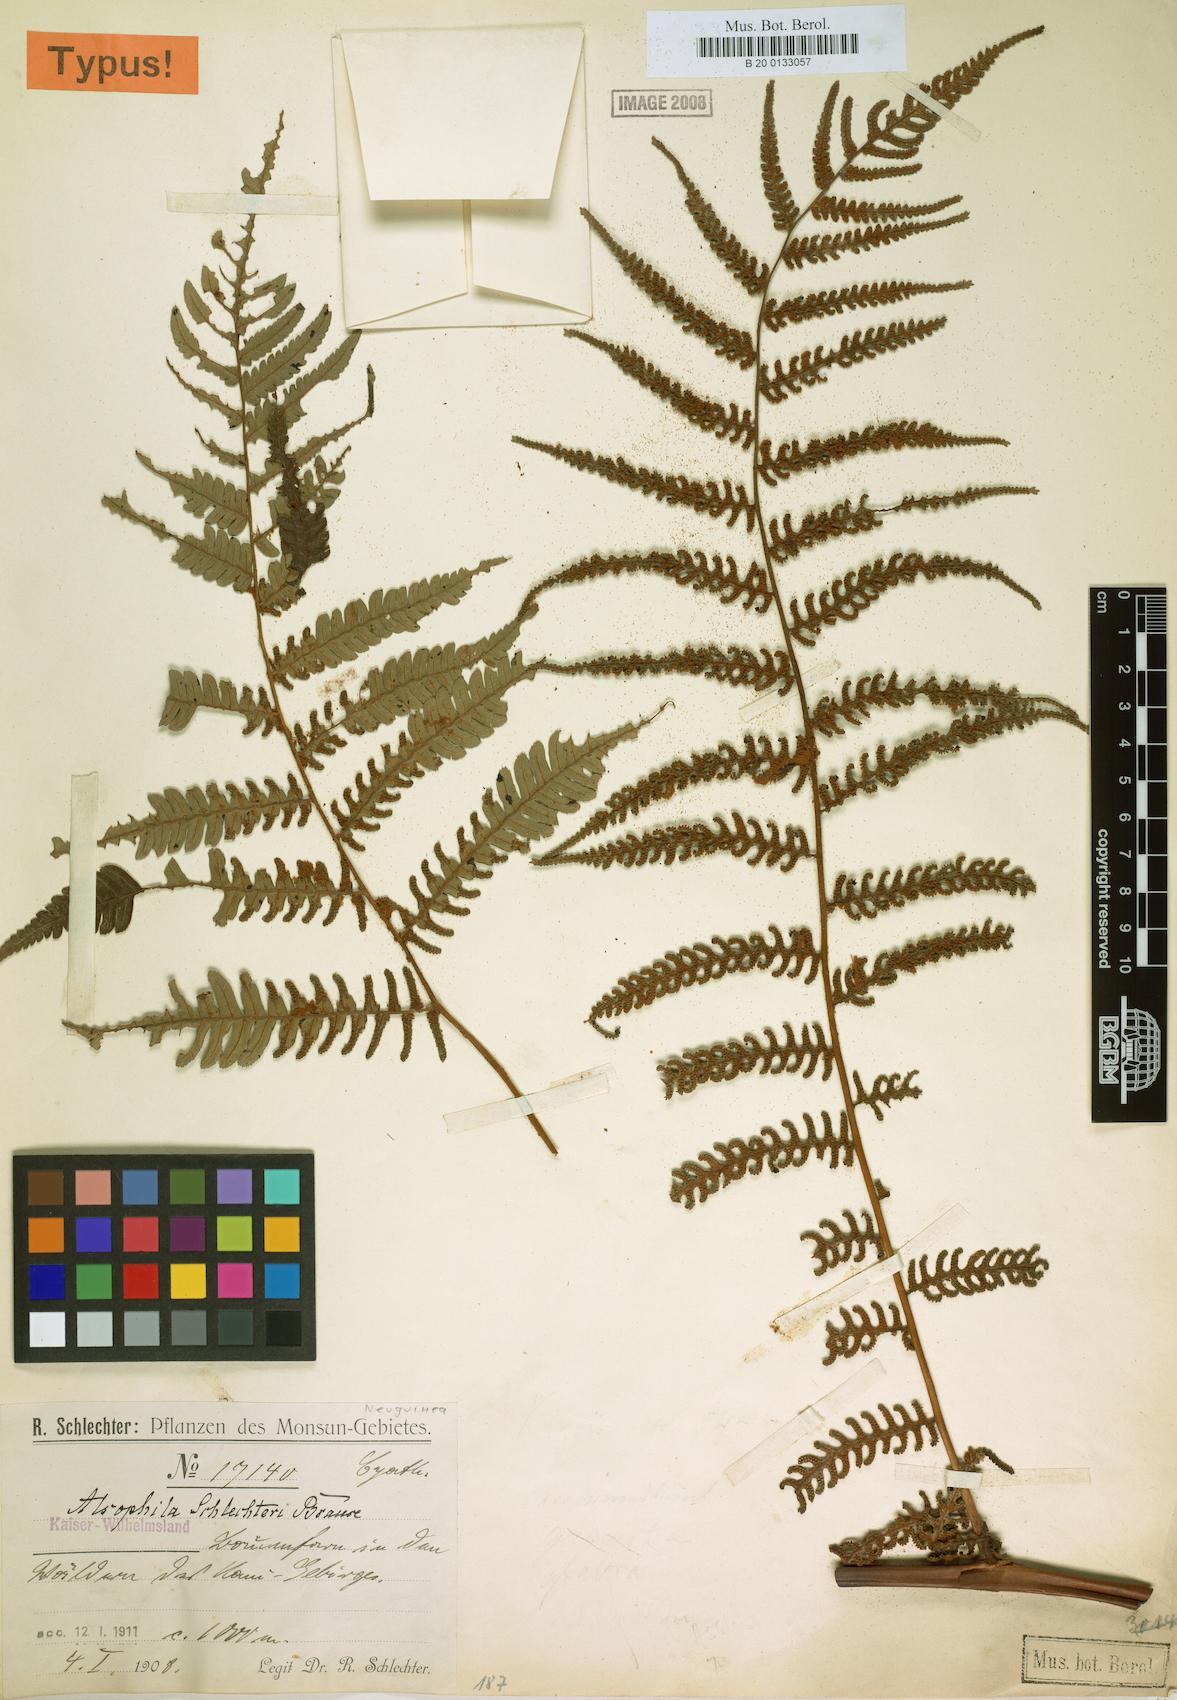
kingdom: Plantae
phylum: Tracheophyta
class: Polypodiopsida
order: Cyatheales
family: Cyatheaceae
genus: Gymnosphaera
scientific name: Gymnosphaera schlechteri
